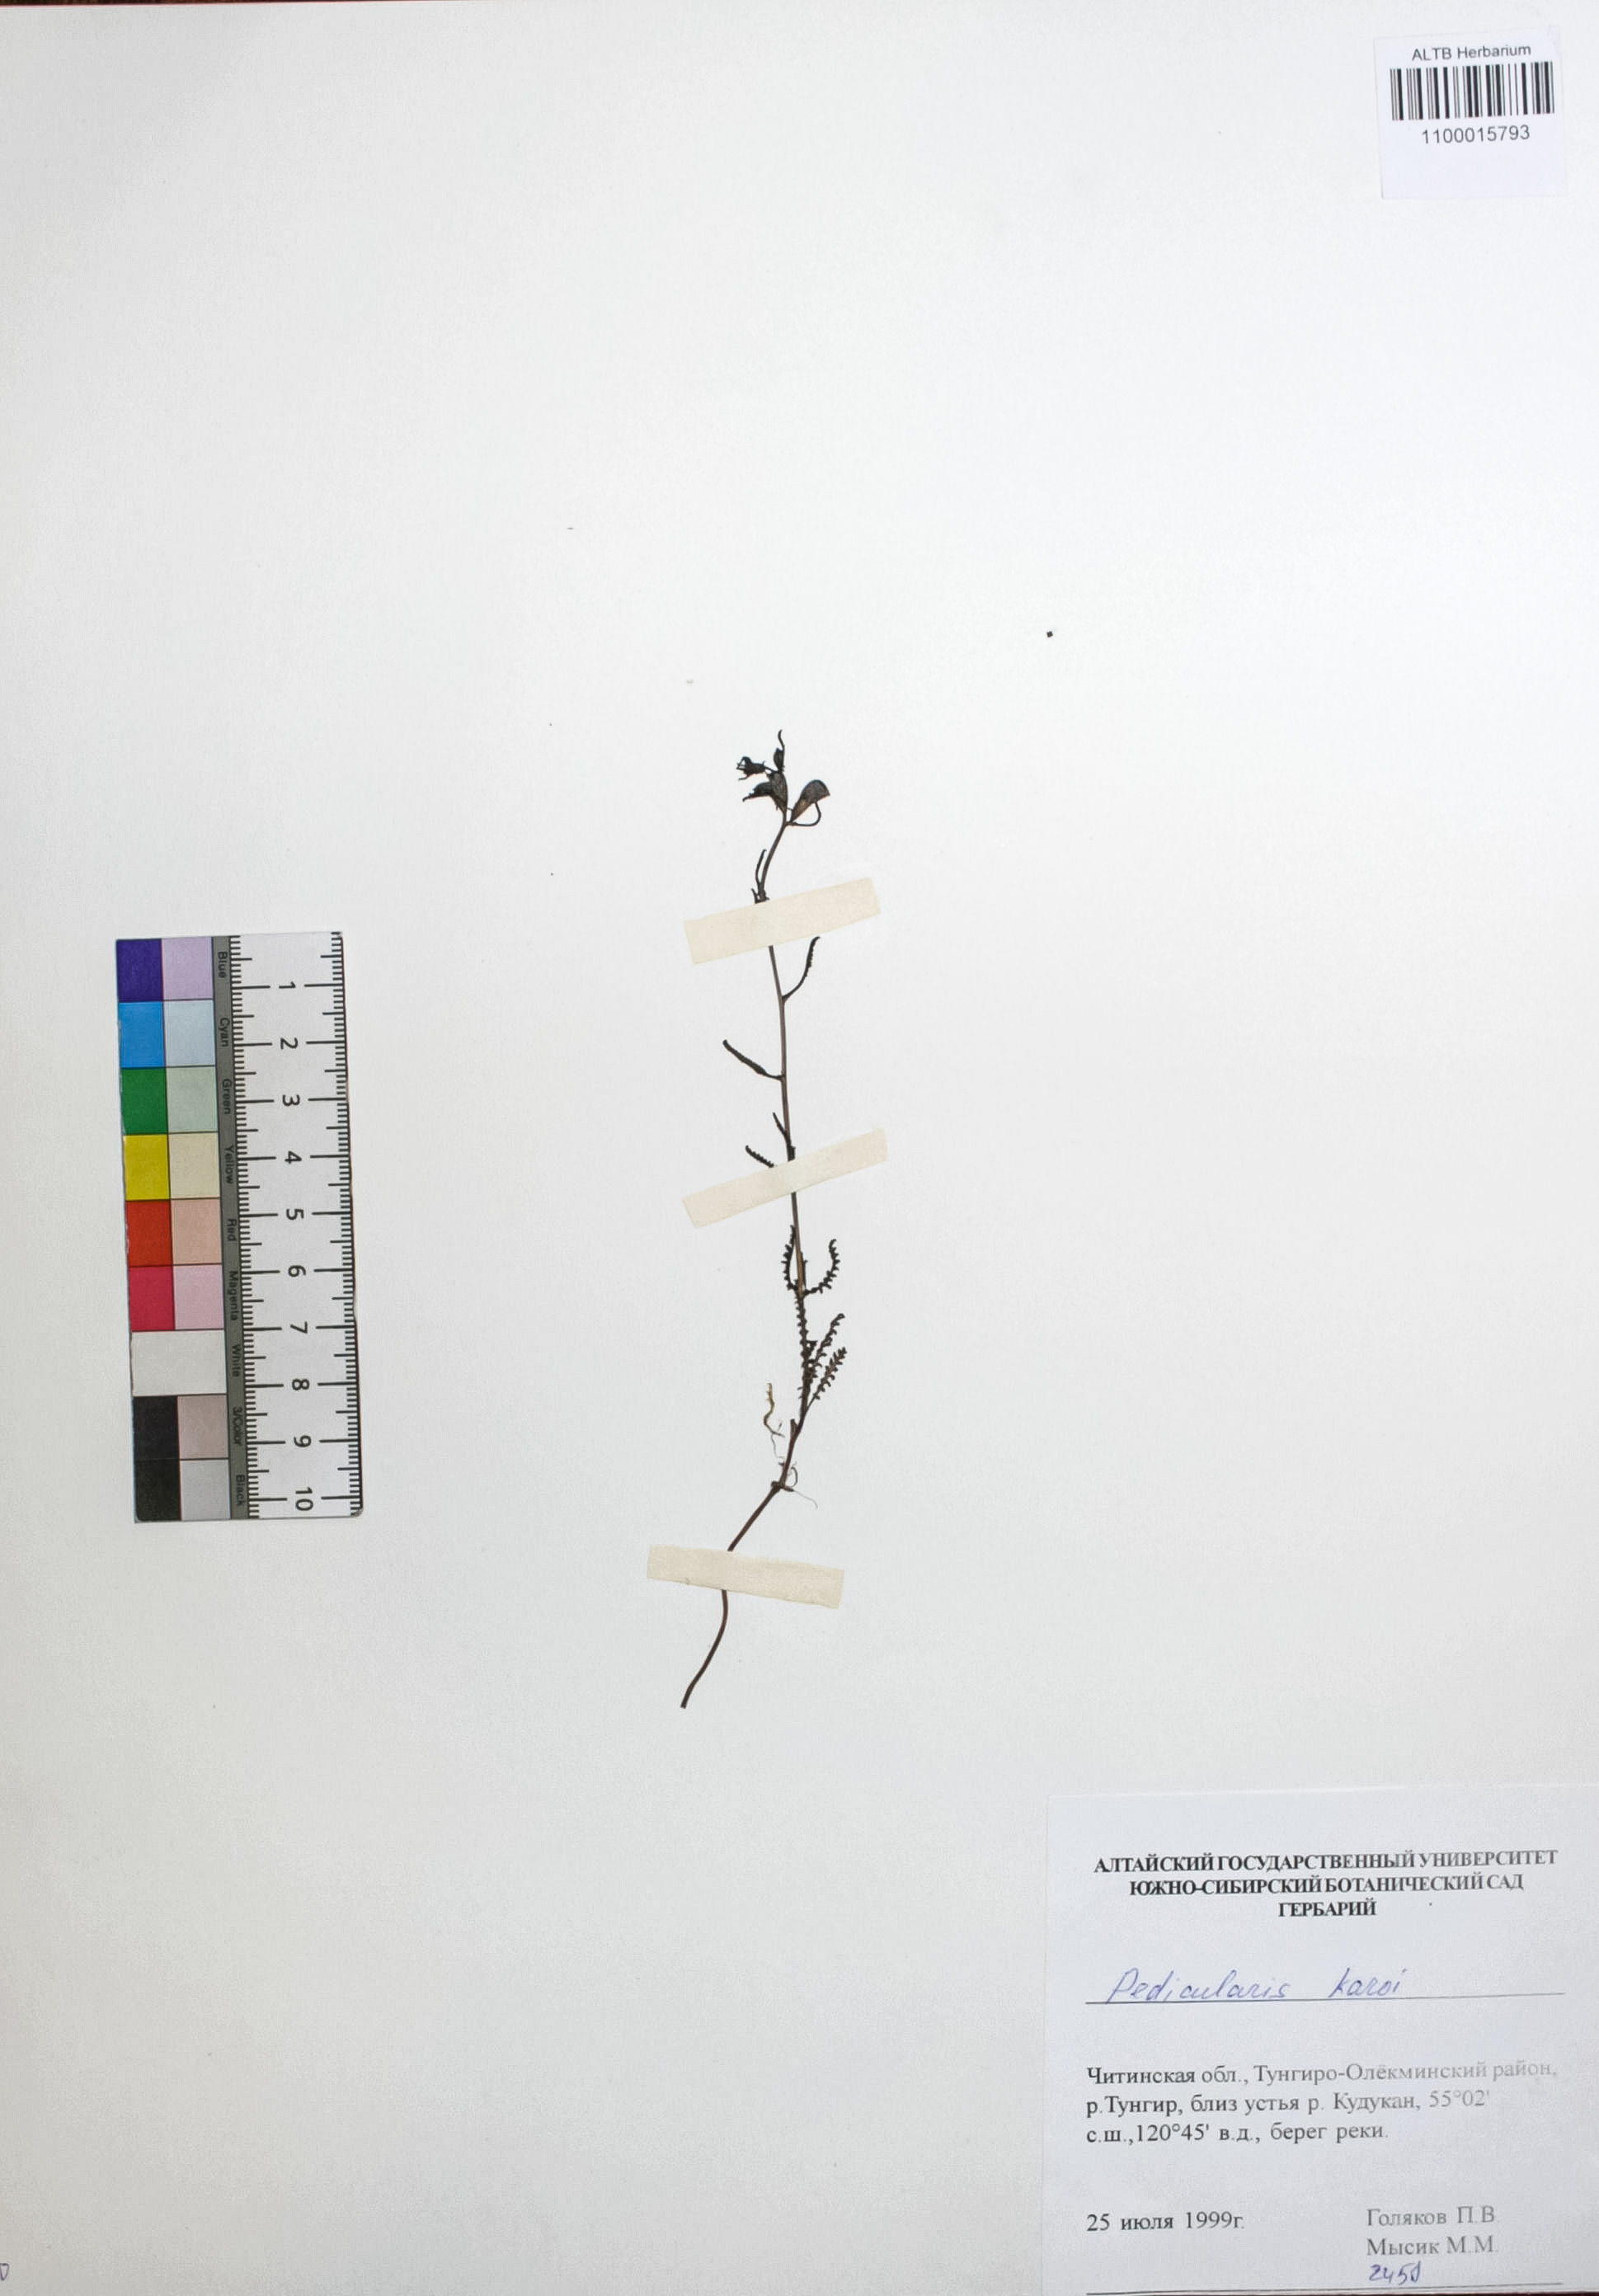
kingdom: Plantae
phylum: Tracheophyta
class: Magnoliopsida
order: Lamiales
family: Orobanchaceae
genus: Pedicularis
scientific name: Pedicularis karoi
